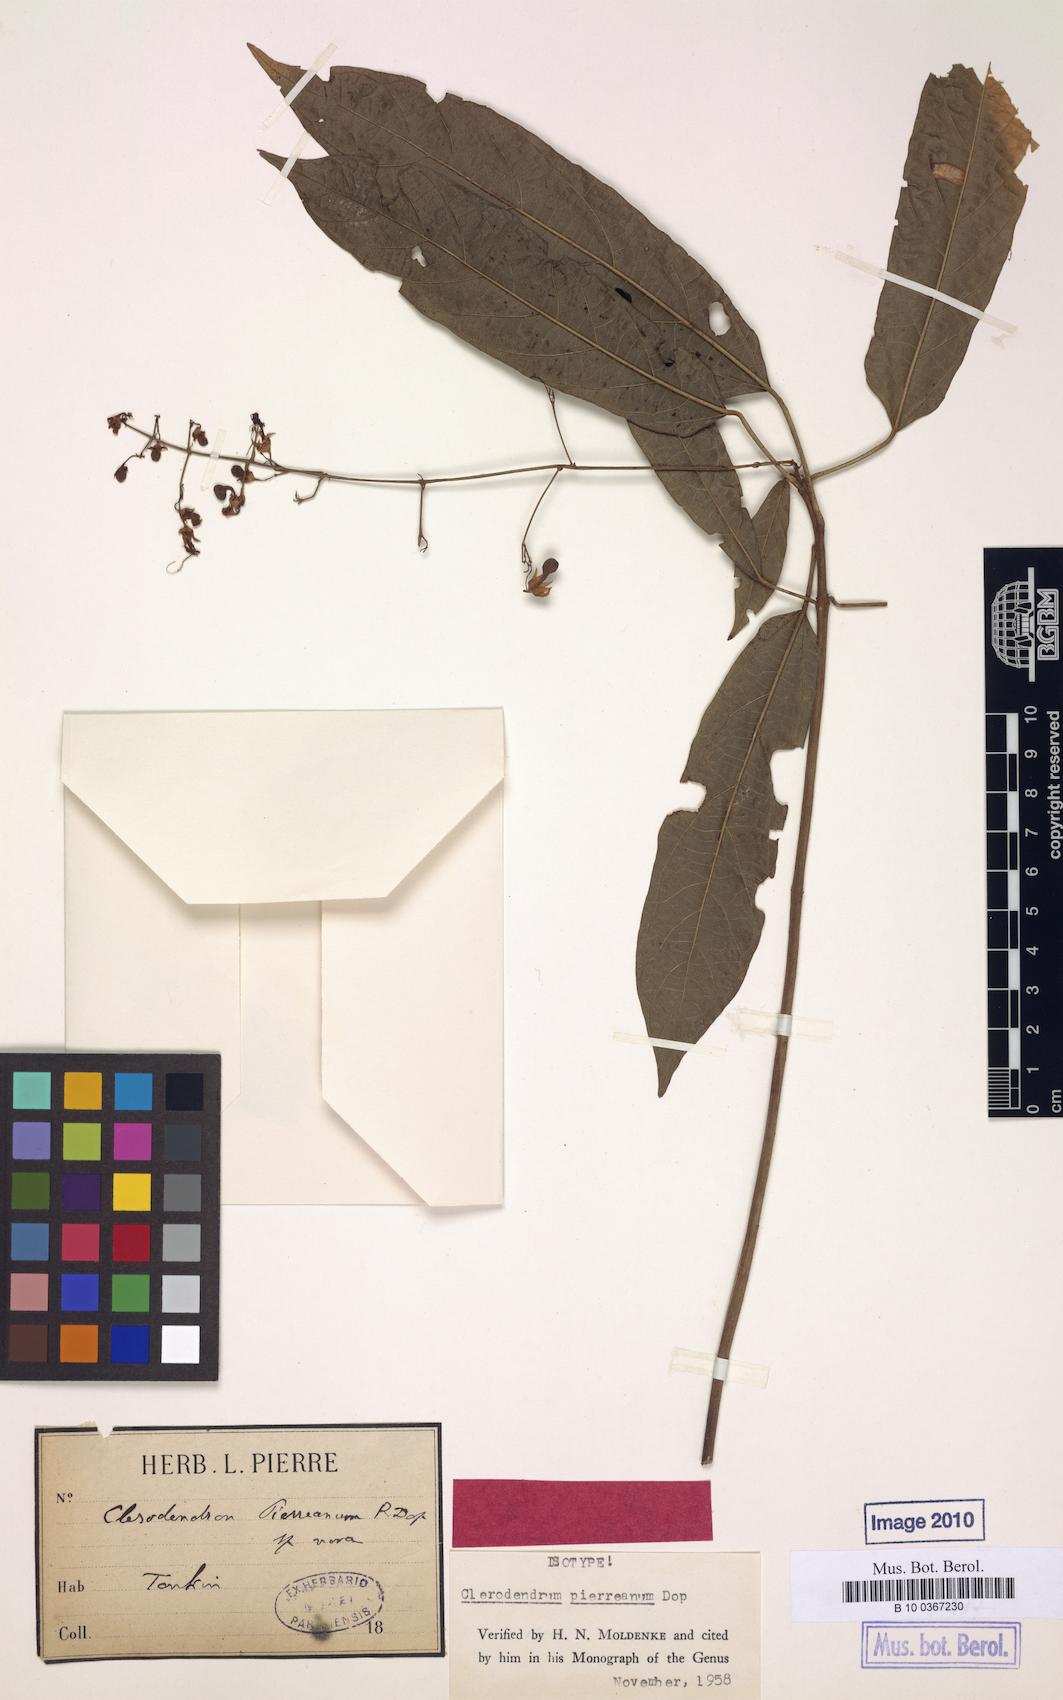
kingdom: Plantae
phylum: Tracheophyta
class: Magnoliopsida
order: Lamiales
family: Lamiaceae
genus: Clerodendrum
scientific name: Clerodendrum pierreanum
